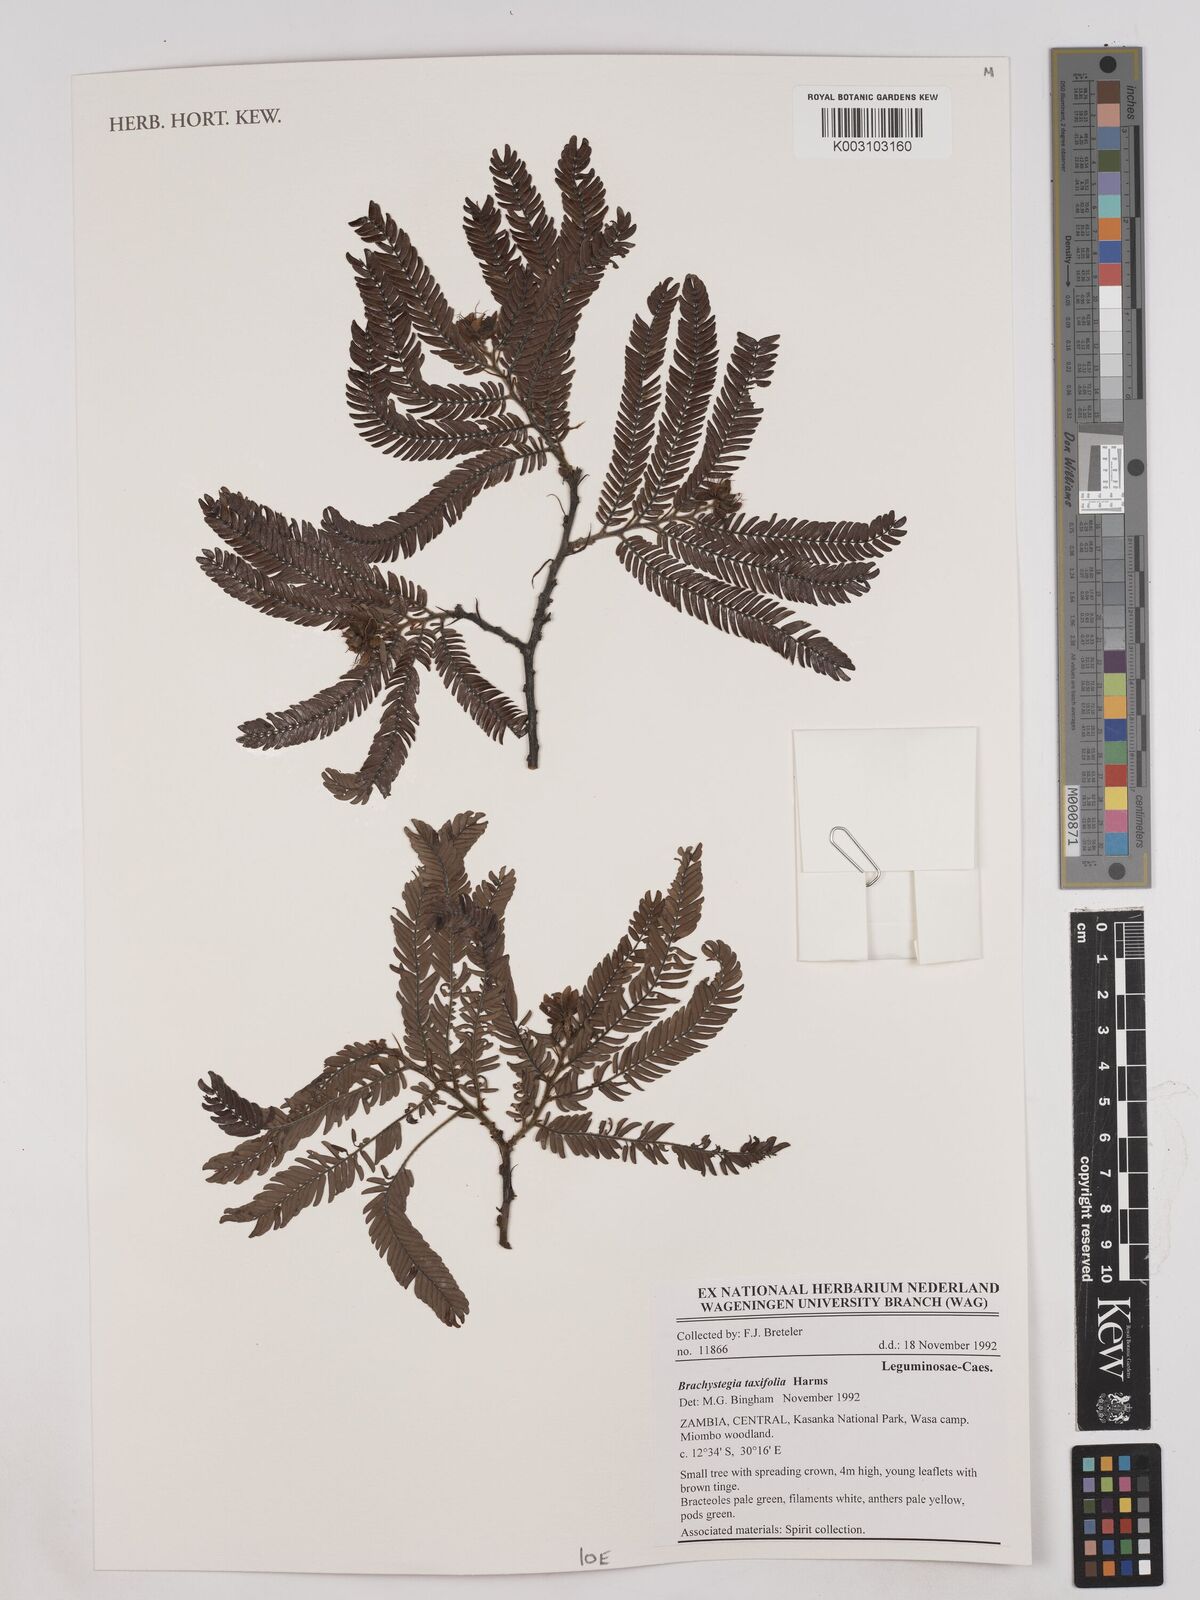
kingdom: Plantae
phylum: Tracheophyta
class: Magnoliopsida
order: Fabales
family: Fabaceae
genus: Brachystegia
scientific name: Brachystegia taxifolia
